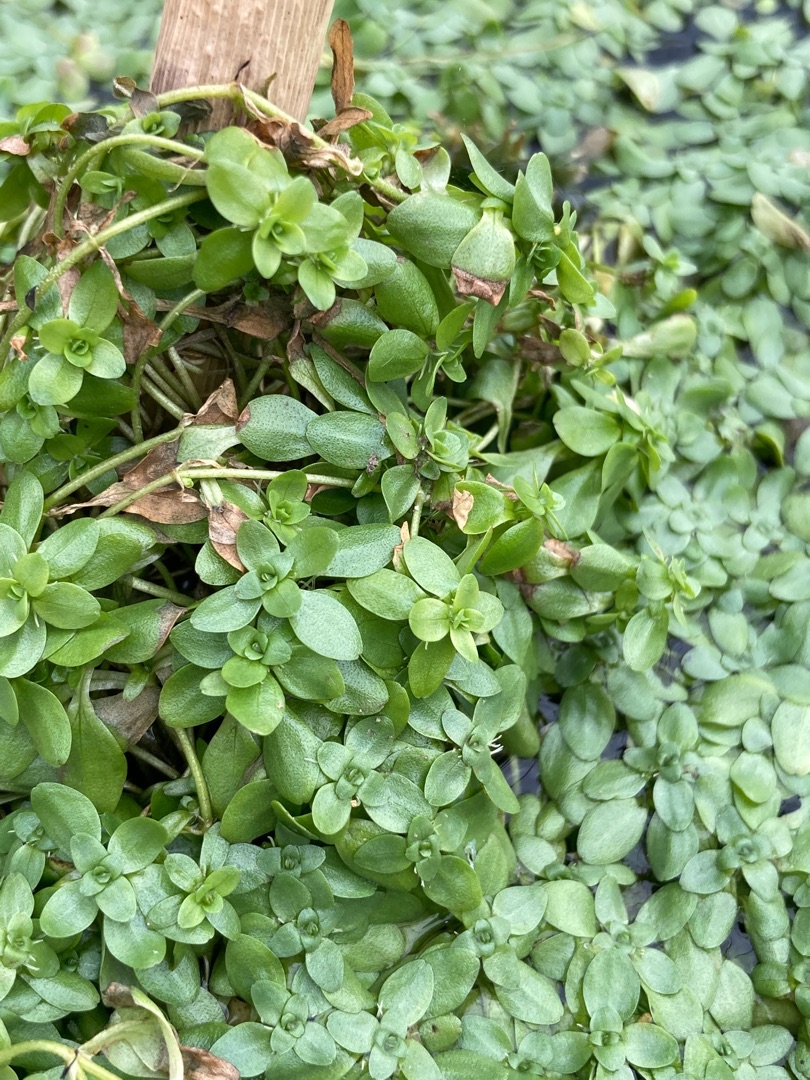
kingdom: Plantae
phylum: Tracheophyta
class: Magnoliopsida
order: Lamiales
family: Plantaginaceae
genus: Callitriche
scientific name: Callitriche
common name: Vandstjerneslægten
